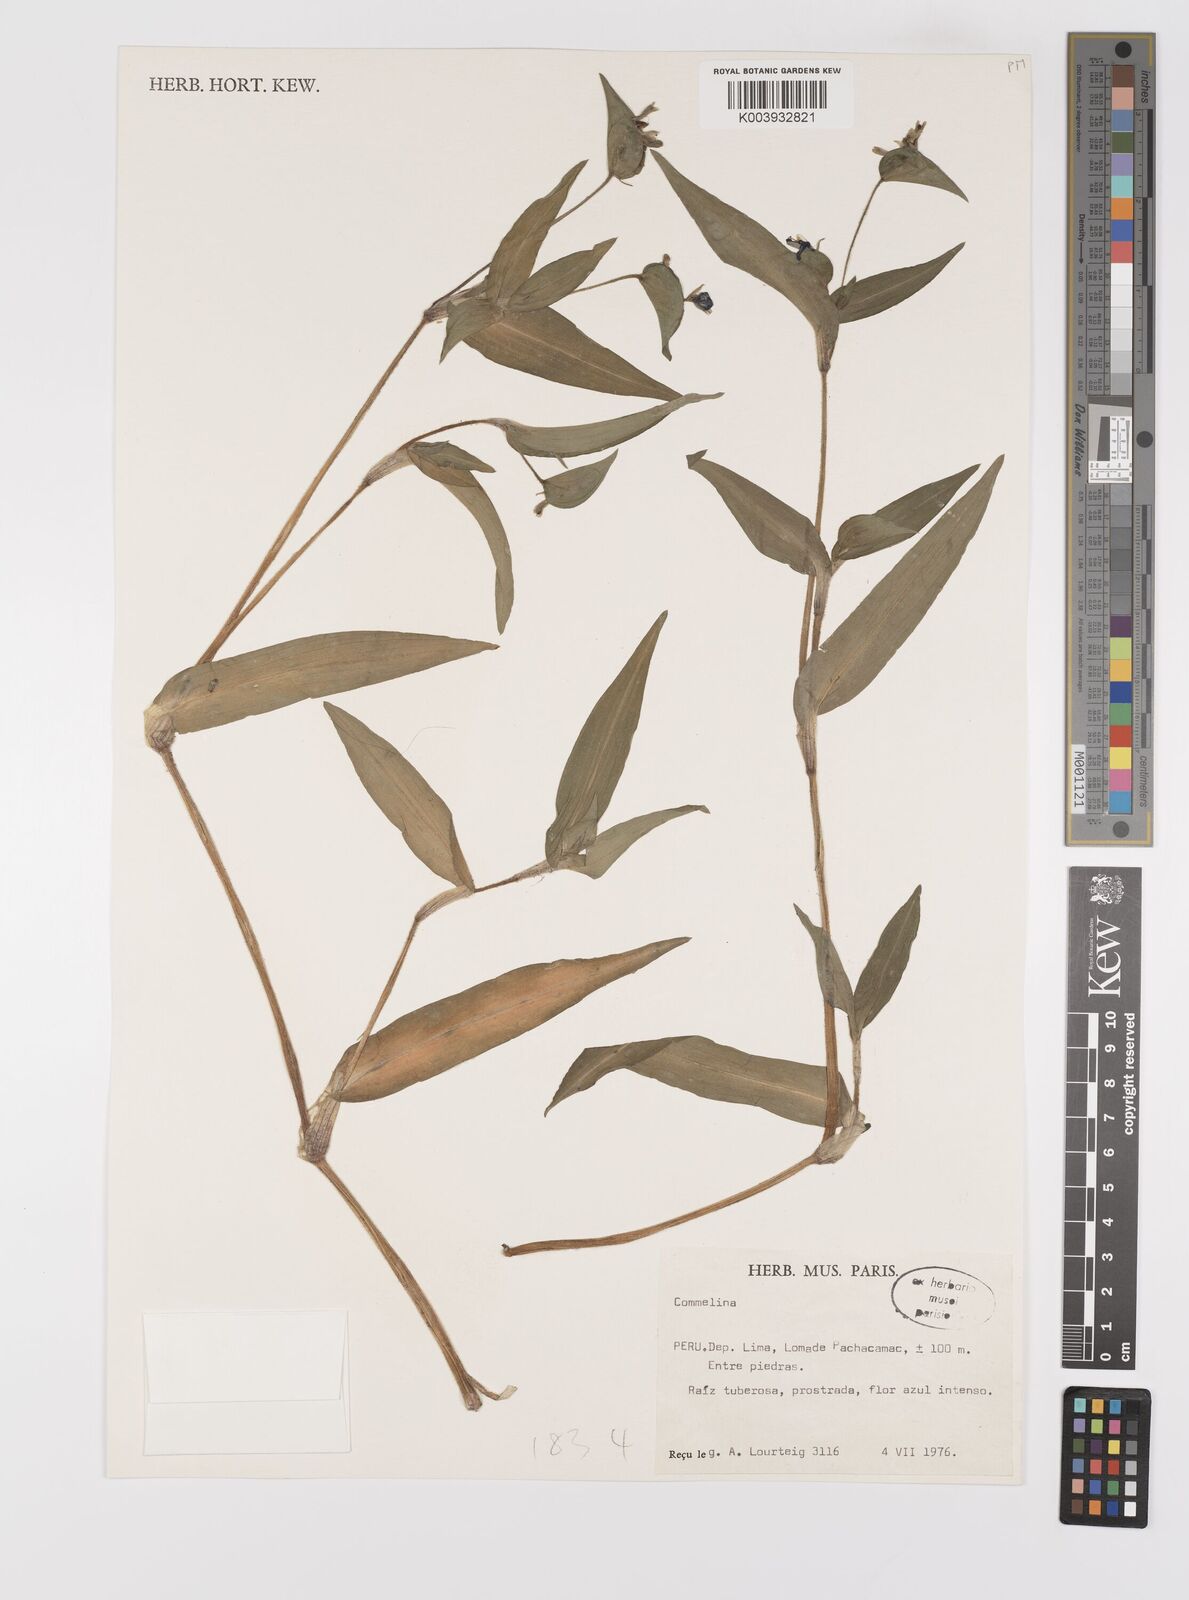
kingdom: Plantae
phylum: Tracheophyta
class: Liliopsida
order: Commelinales
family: Commelinaceae
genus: Commelina
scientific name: Commelina
